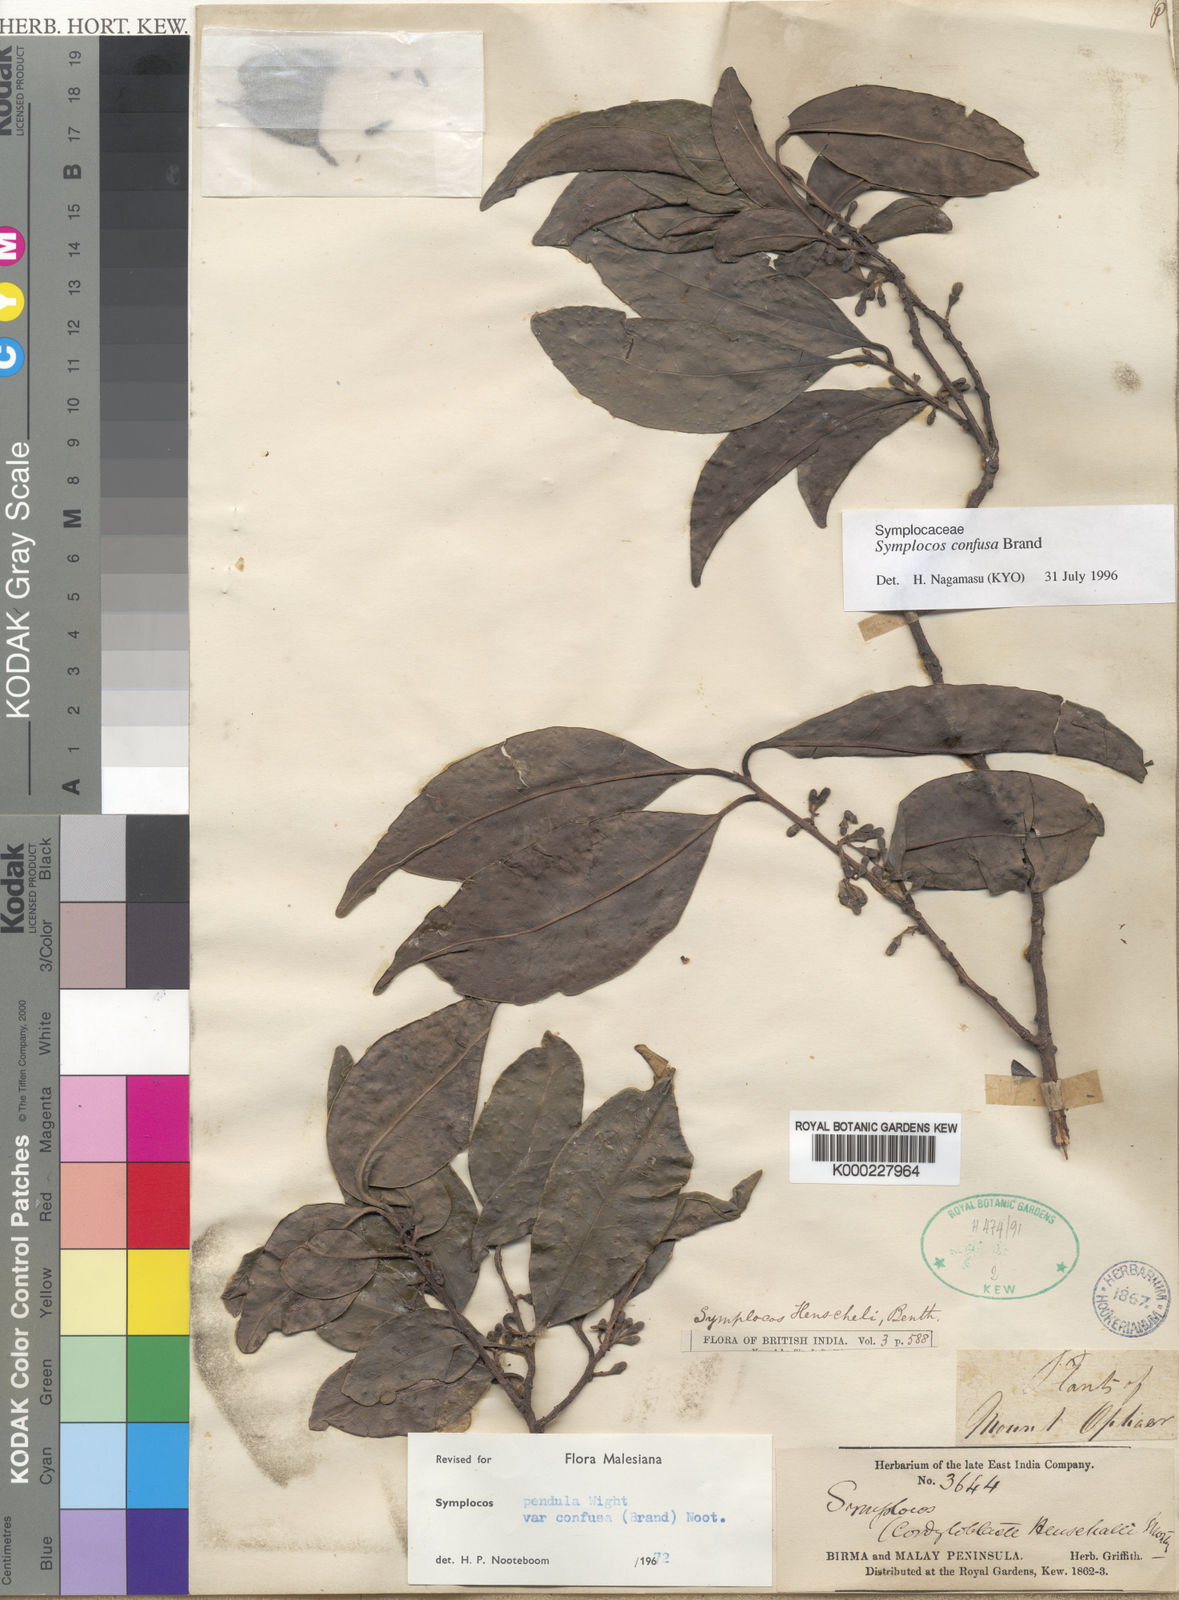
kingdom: Plantae
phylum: Tracheophyta
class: Magnoliopsida
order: Ericales
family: Symplocaceae
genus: Symplocos
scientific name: Symplocos pendula
